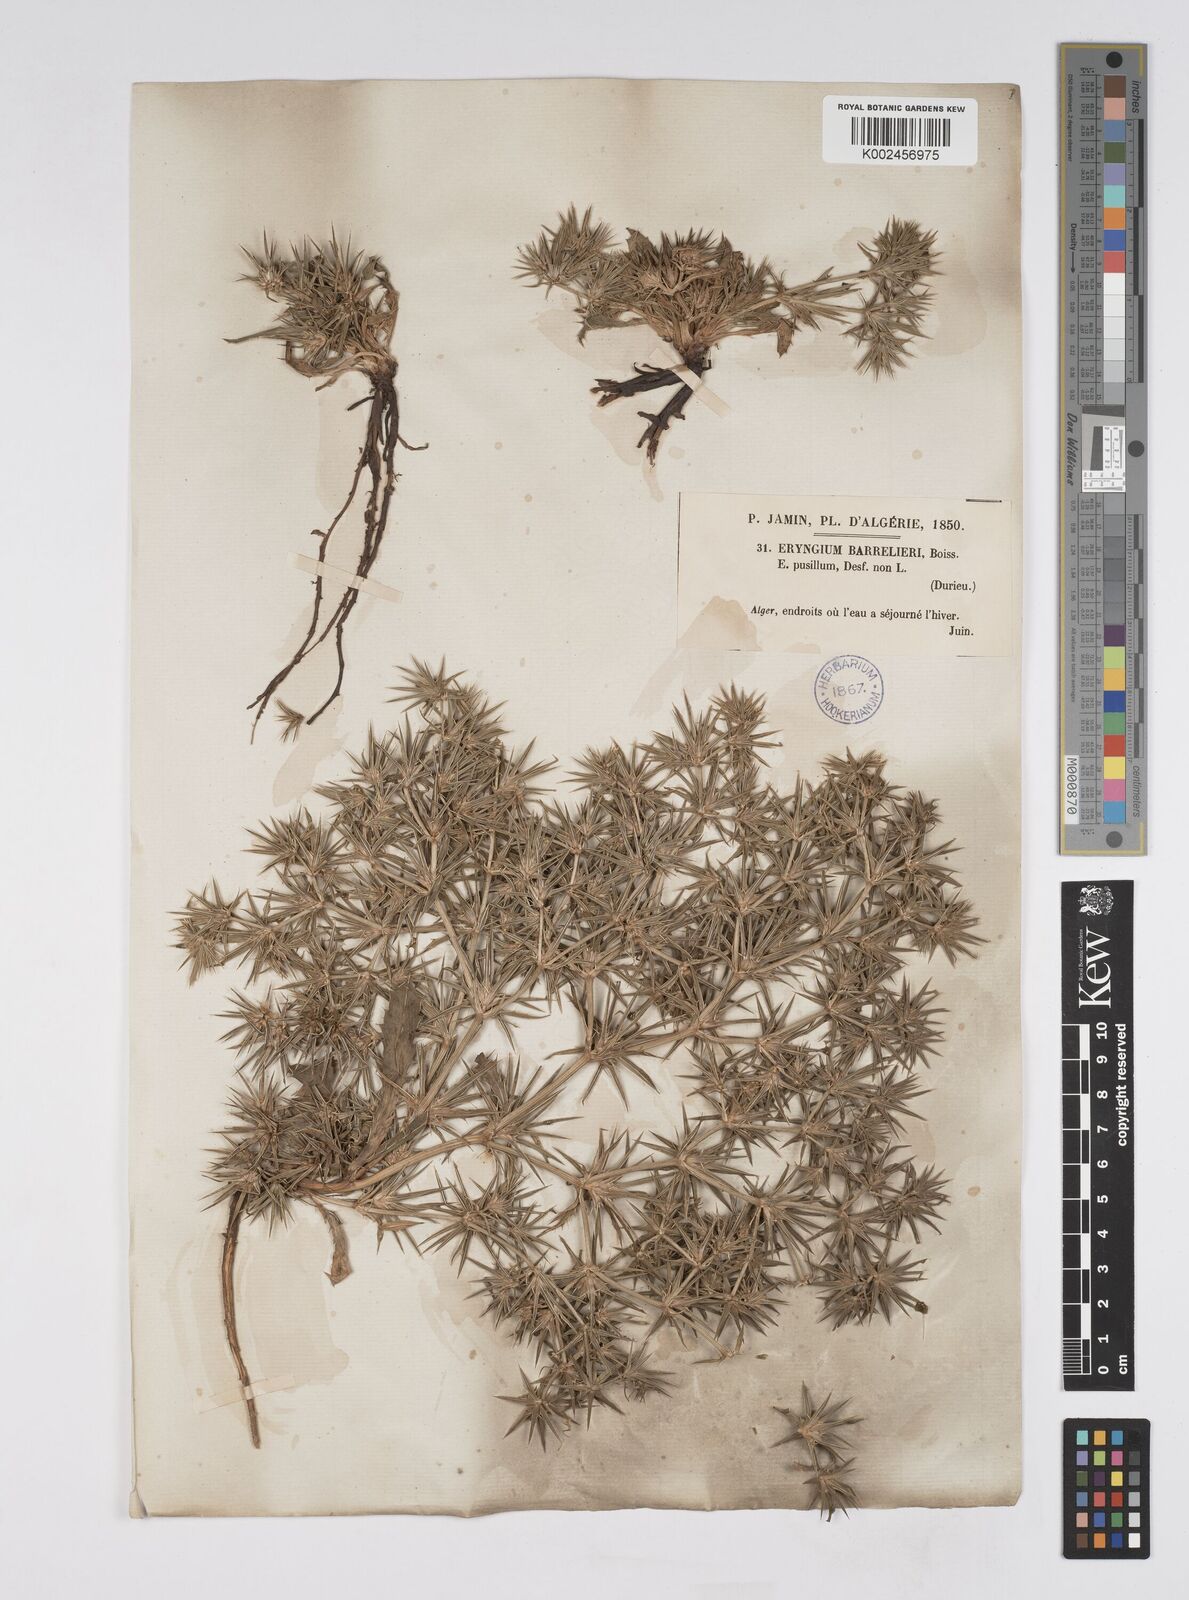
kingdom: Plantae
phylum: Tracheophyta
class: Magnoliopsida
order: Apiales
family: Apiaceae
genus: Eryngium
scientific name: Eryngium pusillum
